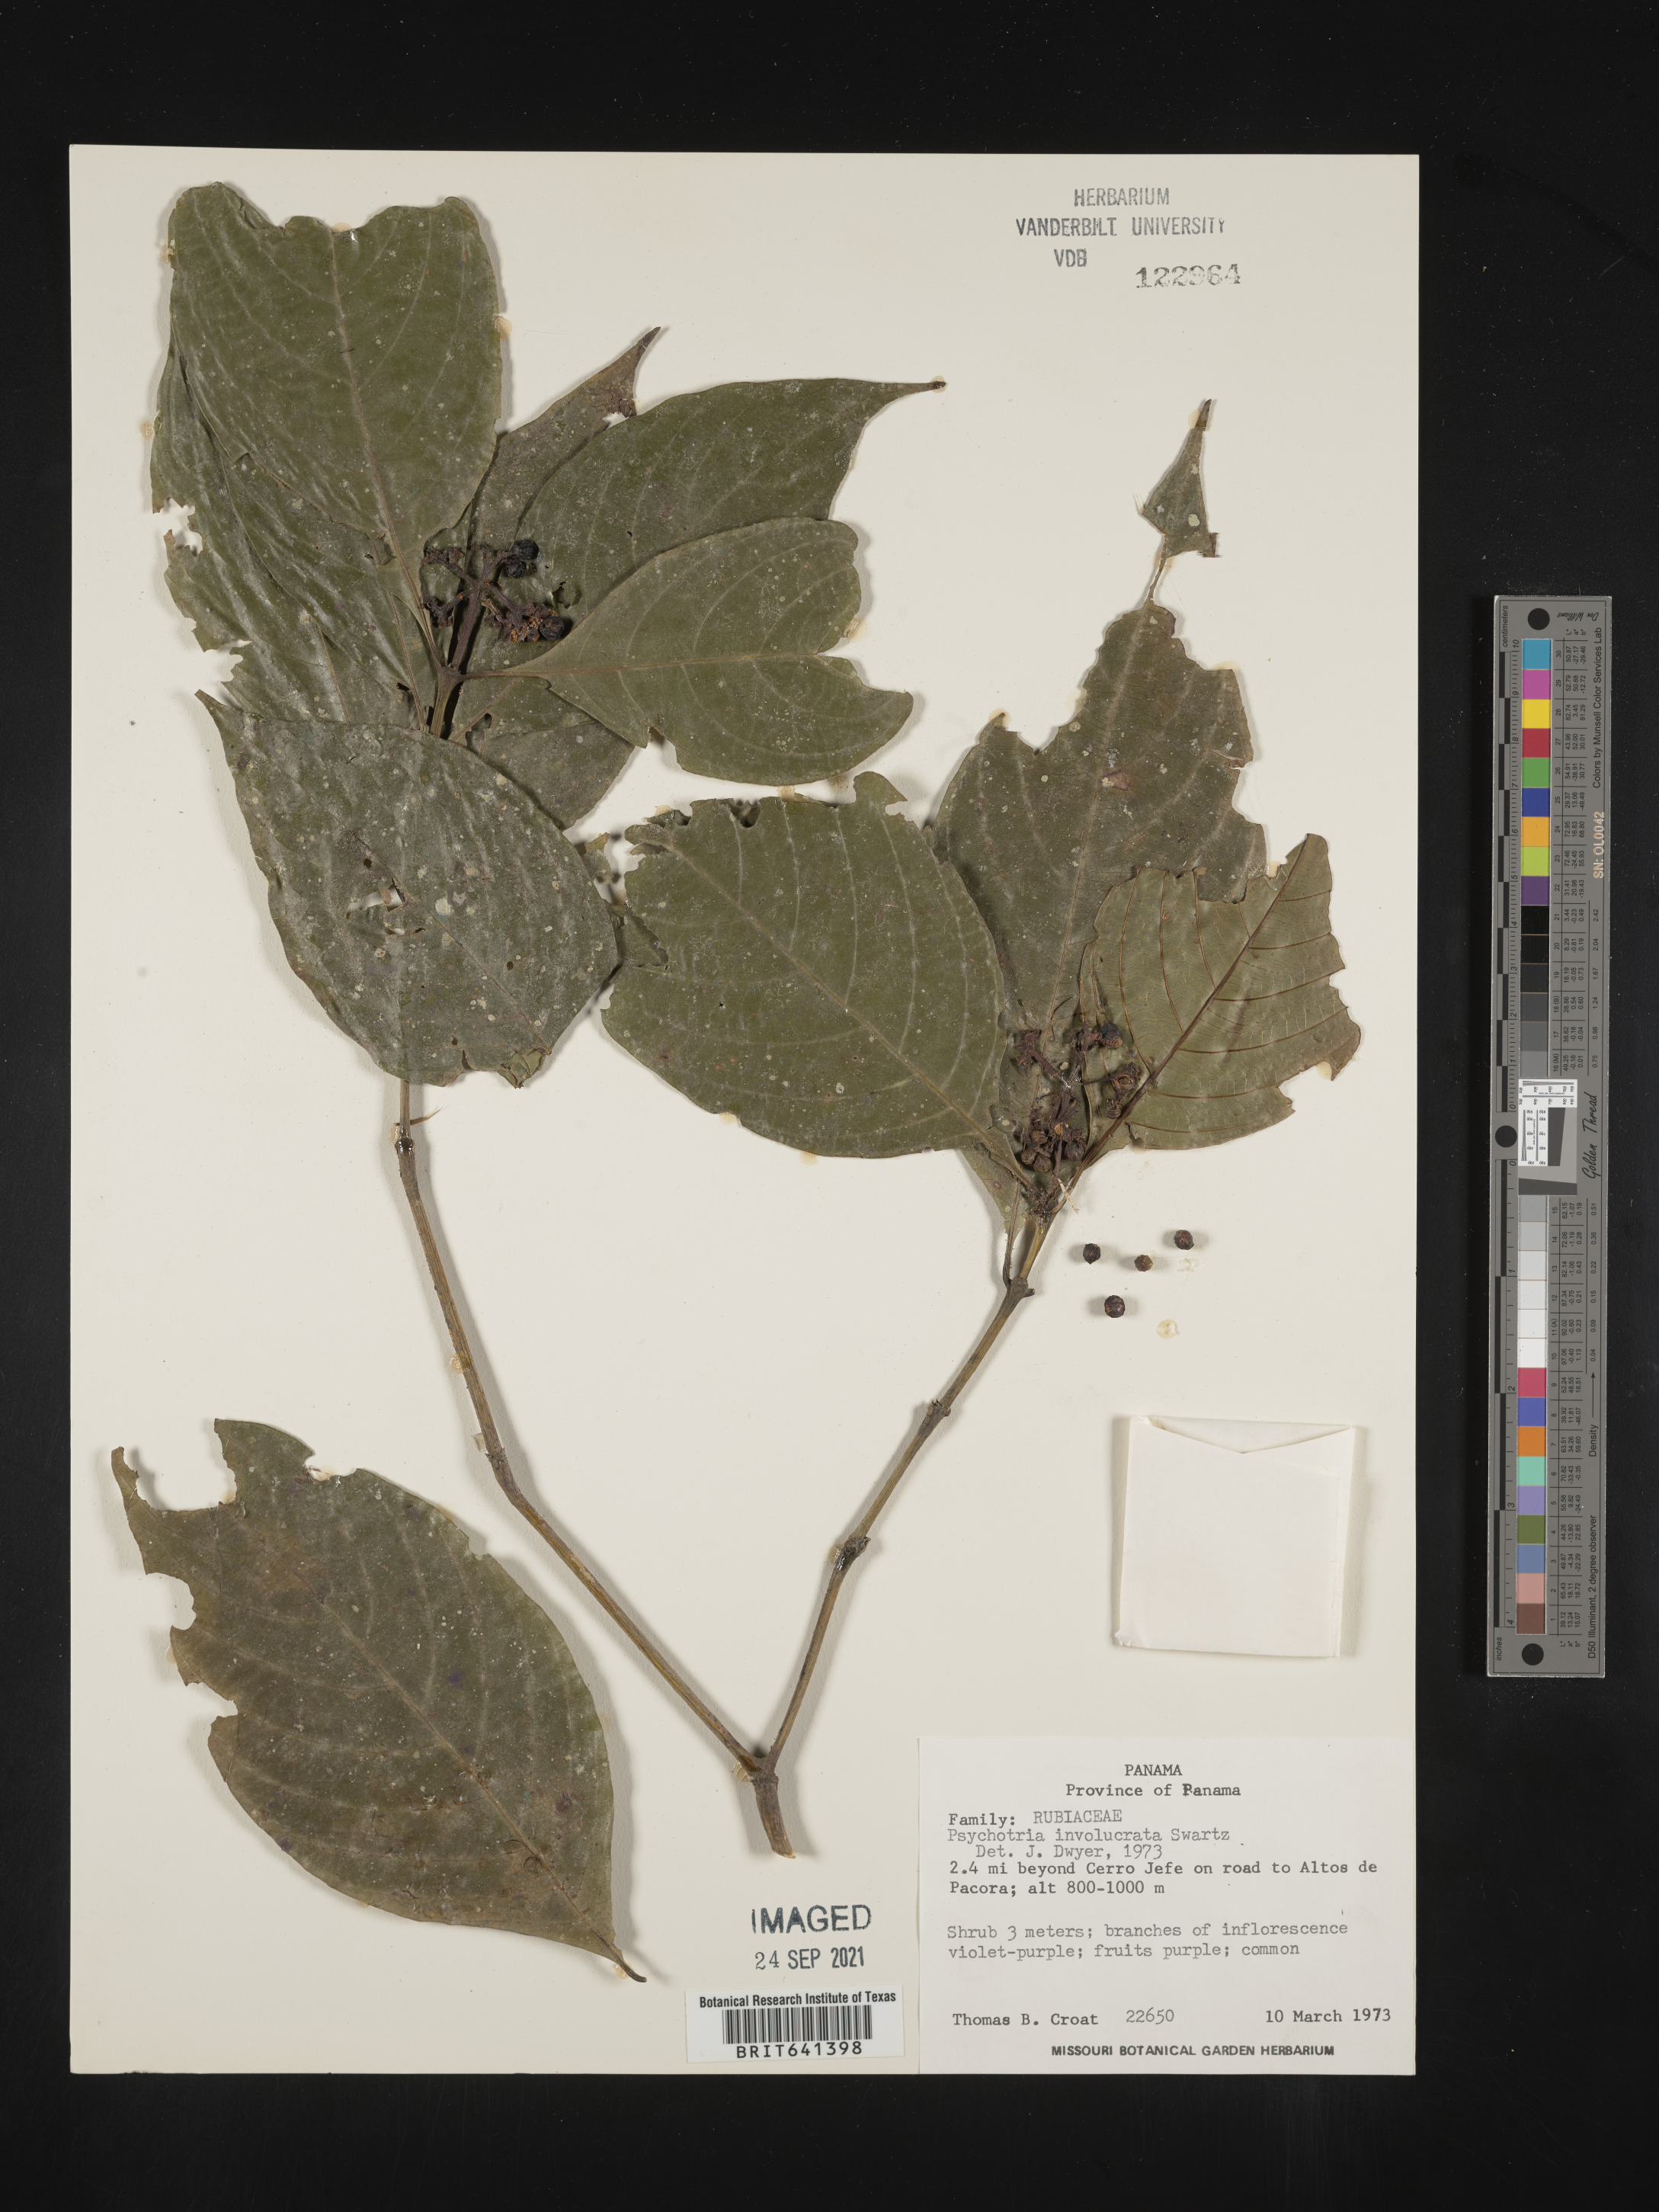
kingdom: Plantae
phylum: Tracheophyta
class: Magnoliopsida
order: Gentianales
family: Rubiaceae
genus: Psychotria
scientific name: Psychotria
